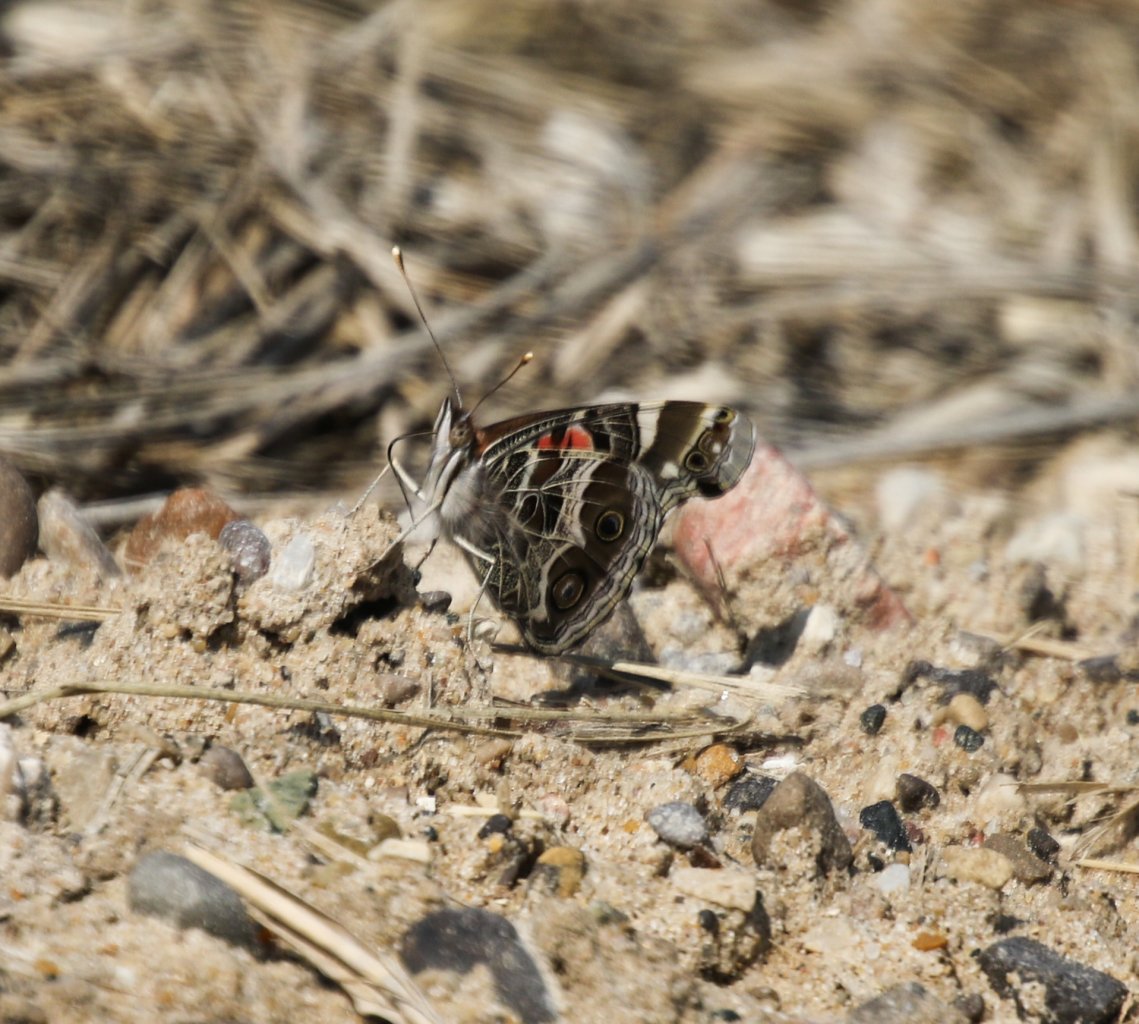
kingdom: Animalia
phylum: Arthropoda
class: Insecta
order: Lepidoptera
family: Nymphalidae
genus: Vanessa
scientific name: Vanessa virginiensis
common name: American Lady
